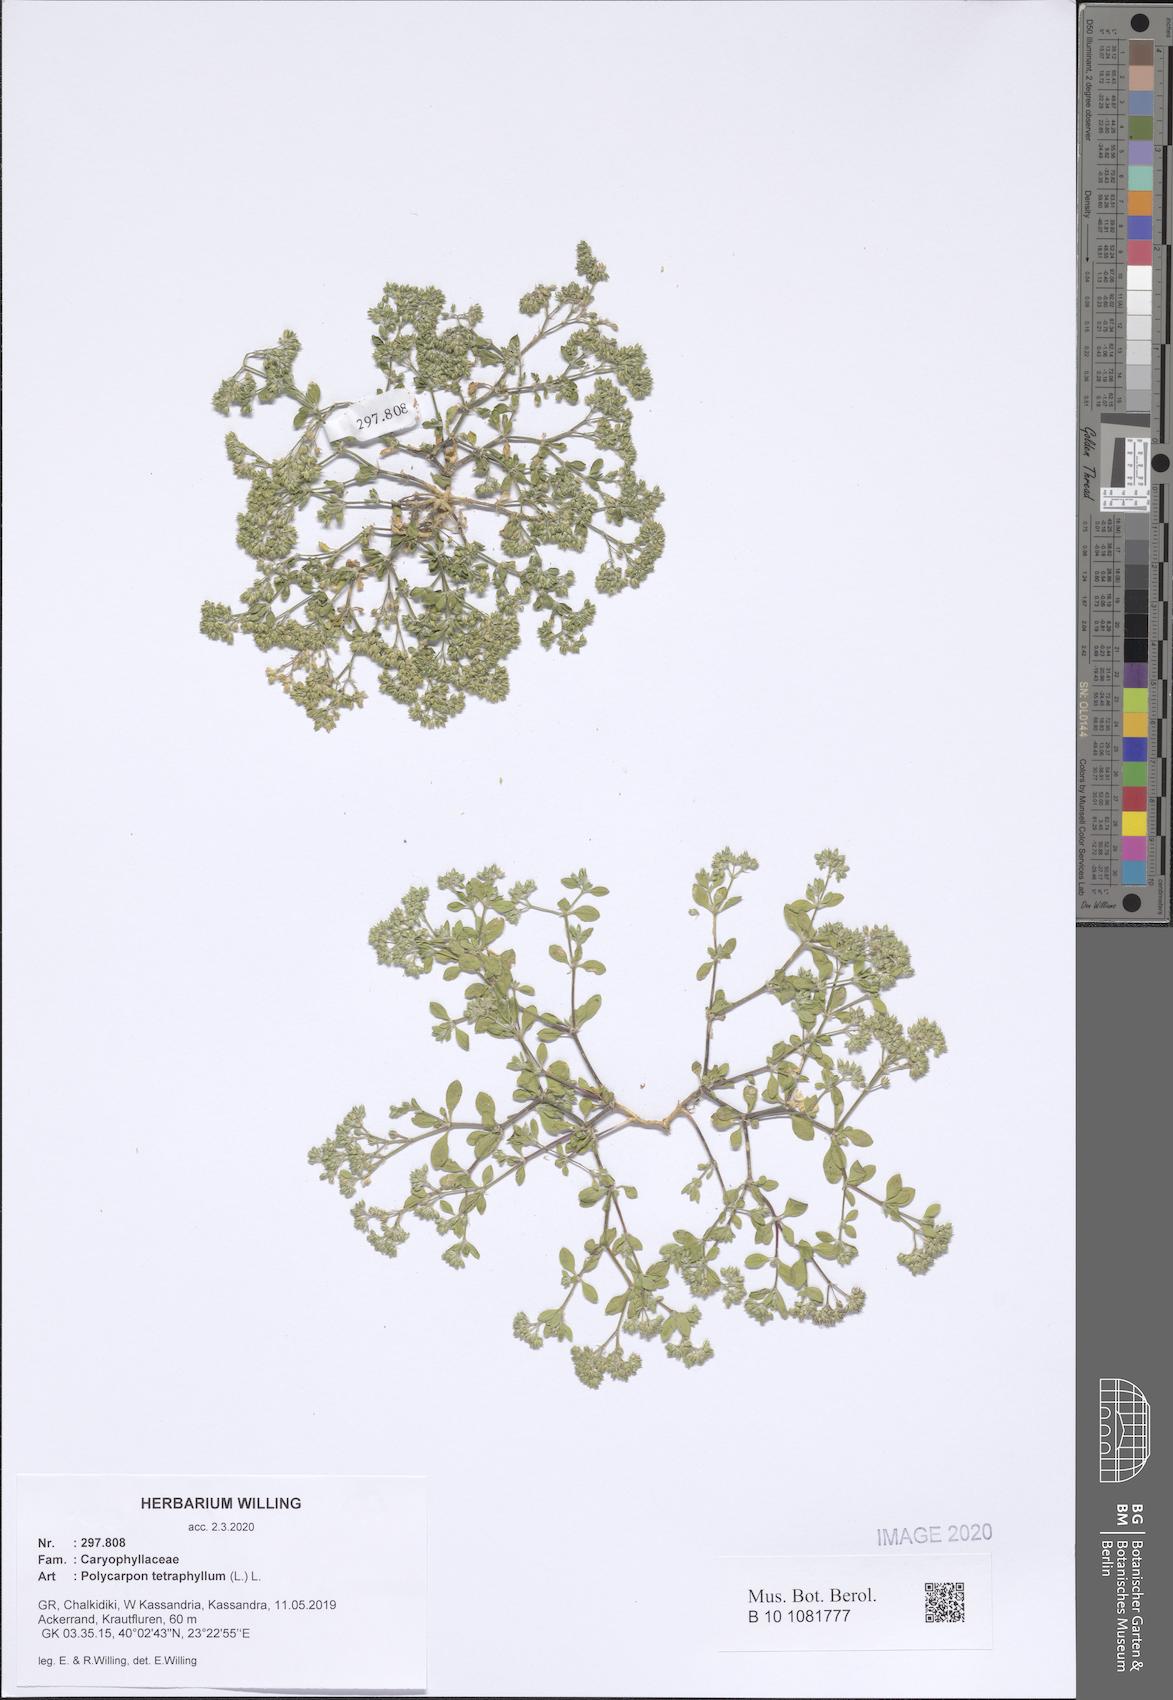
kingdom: Plantae
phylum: Tracheophyta
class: Magnoliopsida
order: Caryophyllales
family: Caryophyllaceae
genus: Polycarpon
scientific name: Polycarpon tetraphyllum
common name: Four-leaved all-seed
